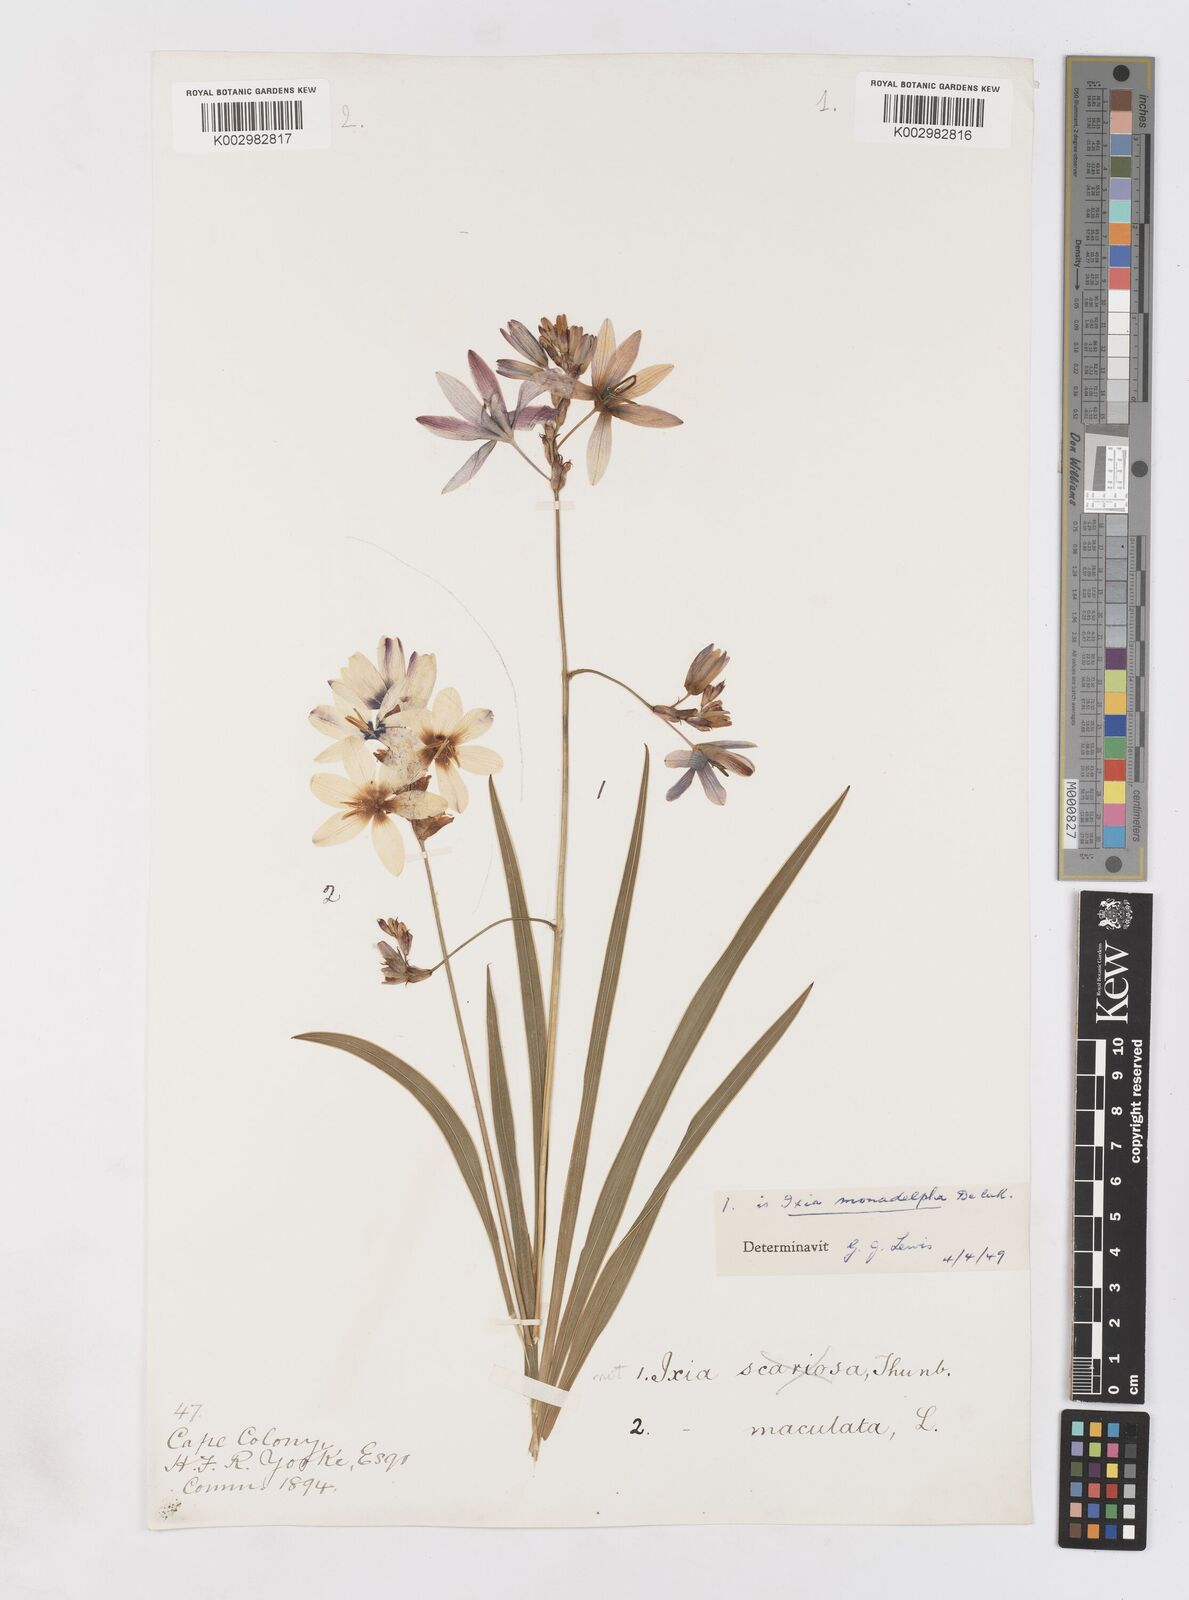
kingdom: Plantae
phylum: Tracheophyta
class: Liliopsida
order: Asparagales
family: Iridaceae
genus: Ixia
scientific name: Ixia monadelpha
